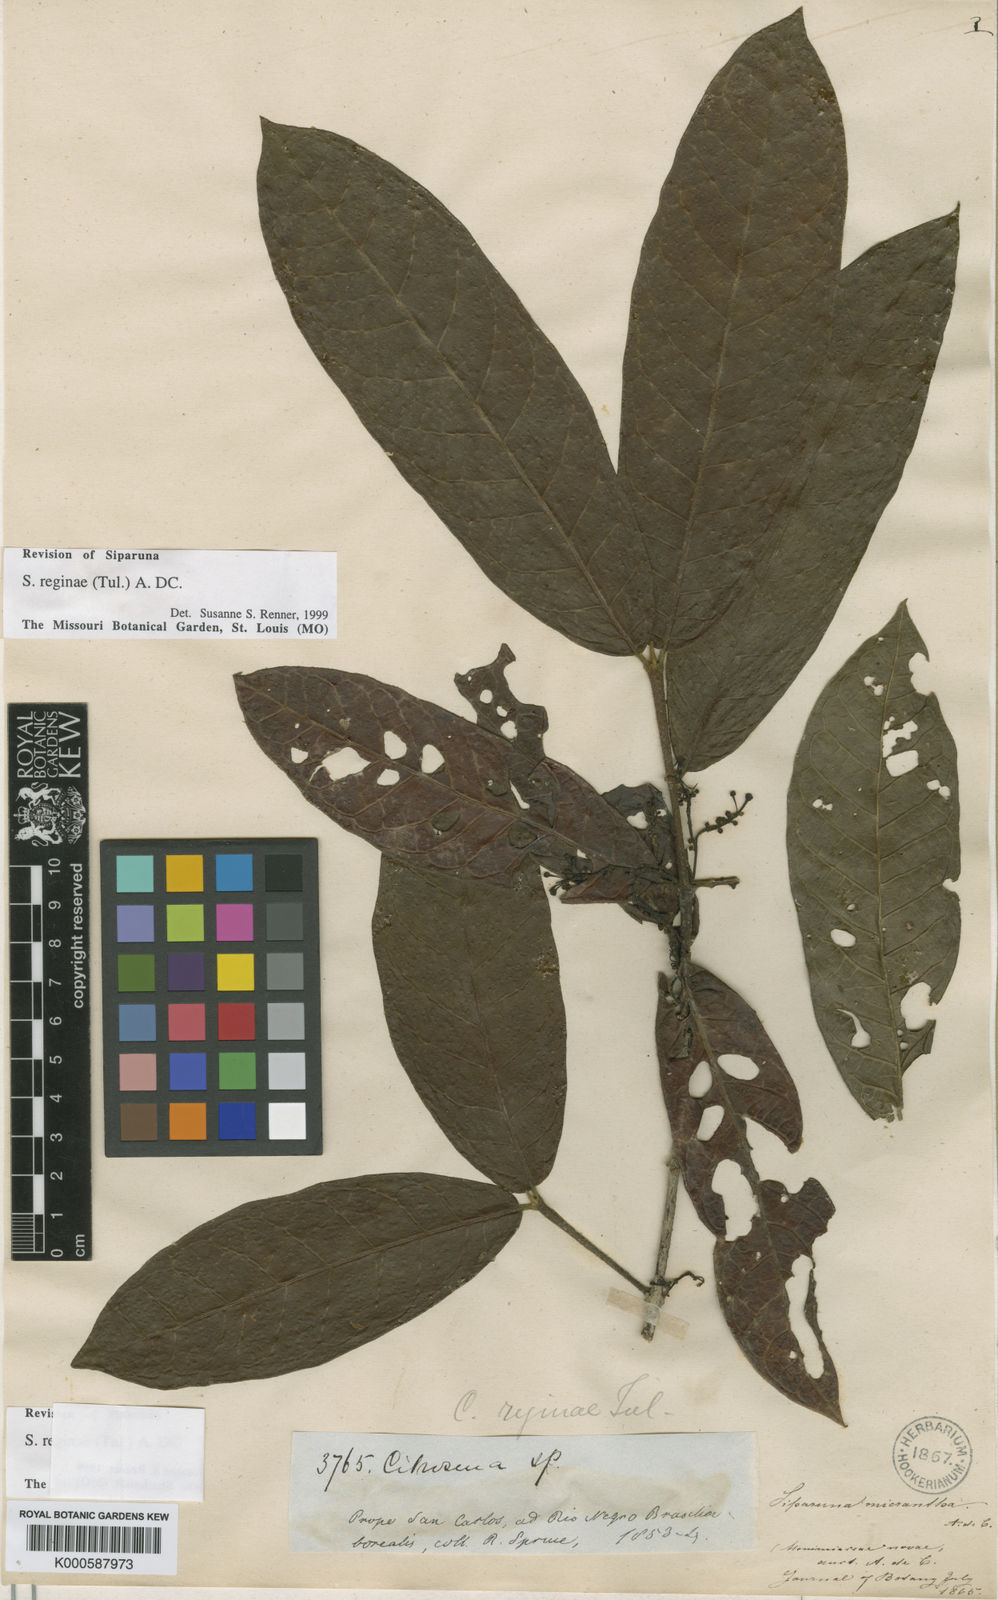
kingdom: Plantae
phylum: Tracheophyta
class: Magnoliopsida
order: Laurales
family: Siparunaceae
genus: Siparuna
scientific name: Siparuna reginae
